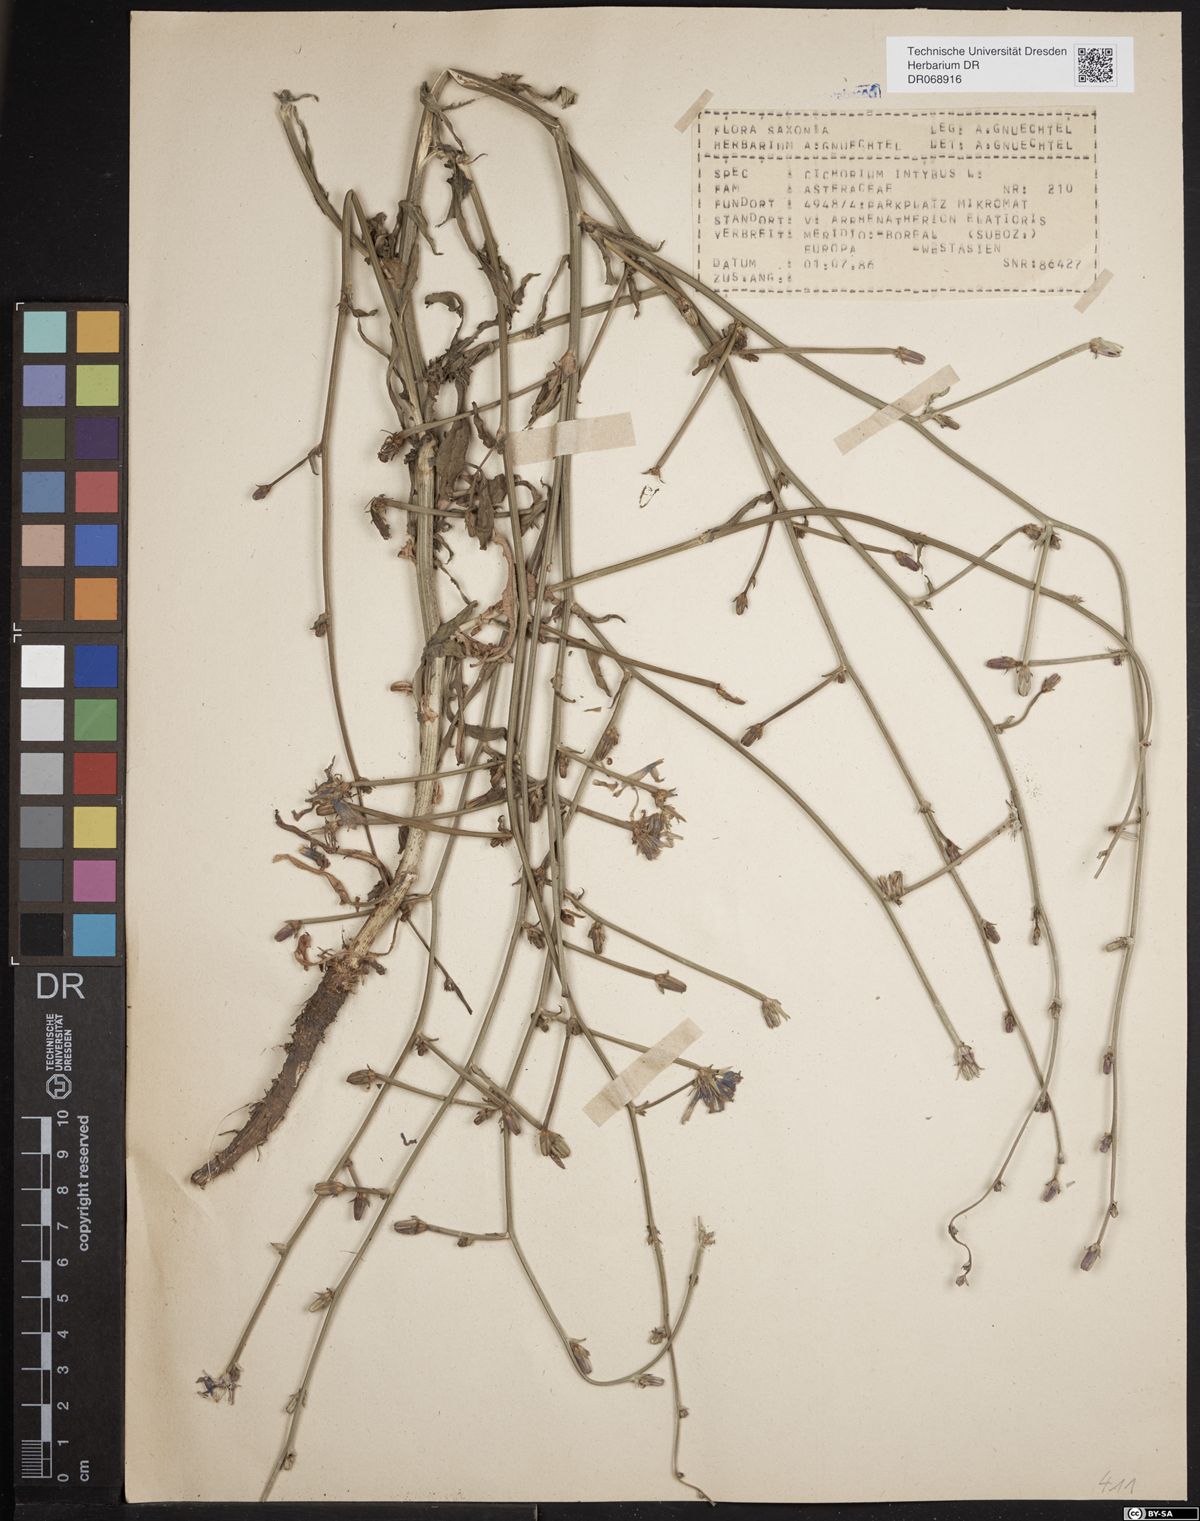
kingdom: Plantae
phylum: Tracheophyta
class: Magnoliopsida
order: Asterales
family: Asteraceae
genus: Cichorium
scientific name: Cichorium intybus
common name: Chicory
